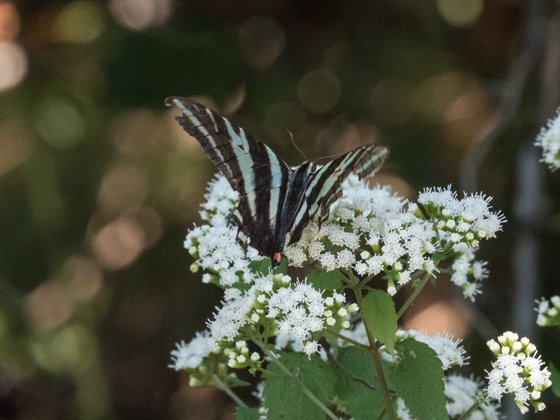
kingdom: Animalia
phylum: Arthropoda
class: Insecta
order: Lepidoptera
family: Papilionidae
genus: Protographium
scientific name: Protographium marcellus
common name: Zebra Swallowtail
